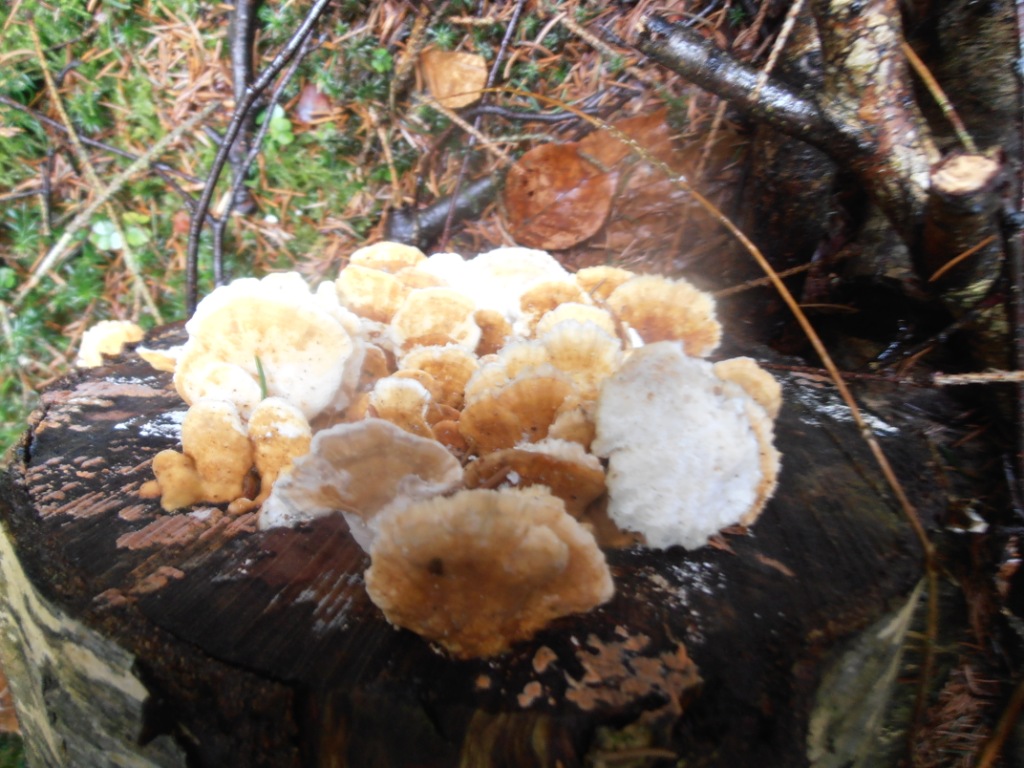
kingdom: Fungi
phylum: Basidiomycota
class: Agaricomycetes
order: Polyporales
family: Polyporaceae
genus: Trametes
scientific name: Trametes ochracea
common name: bæltet læderporesvamp
